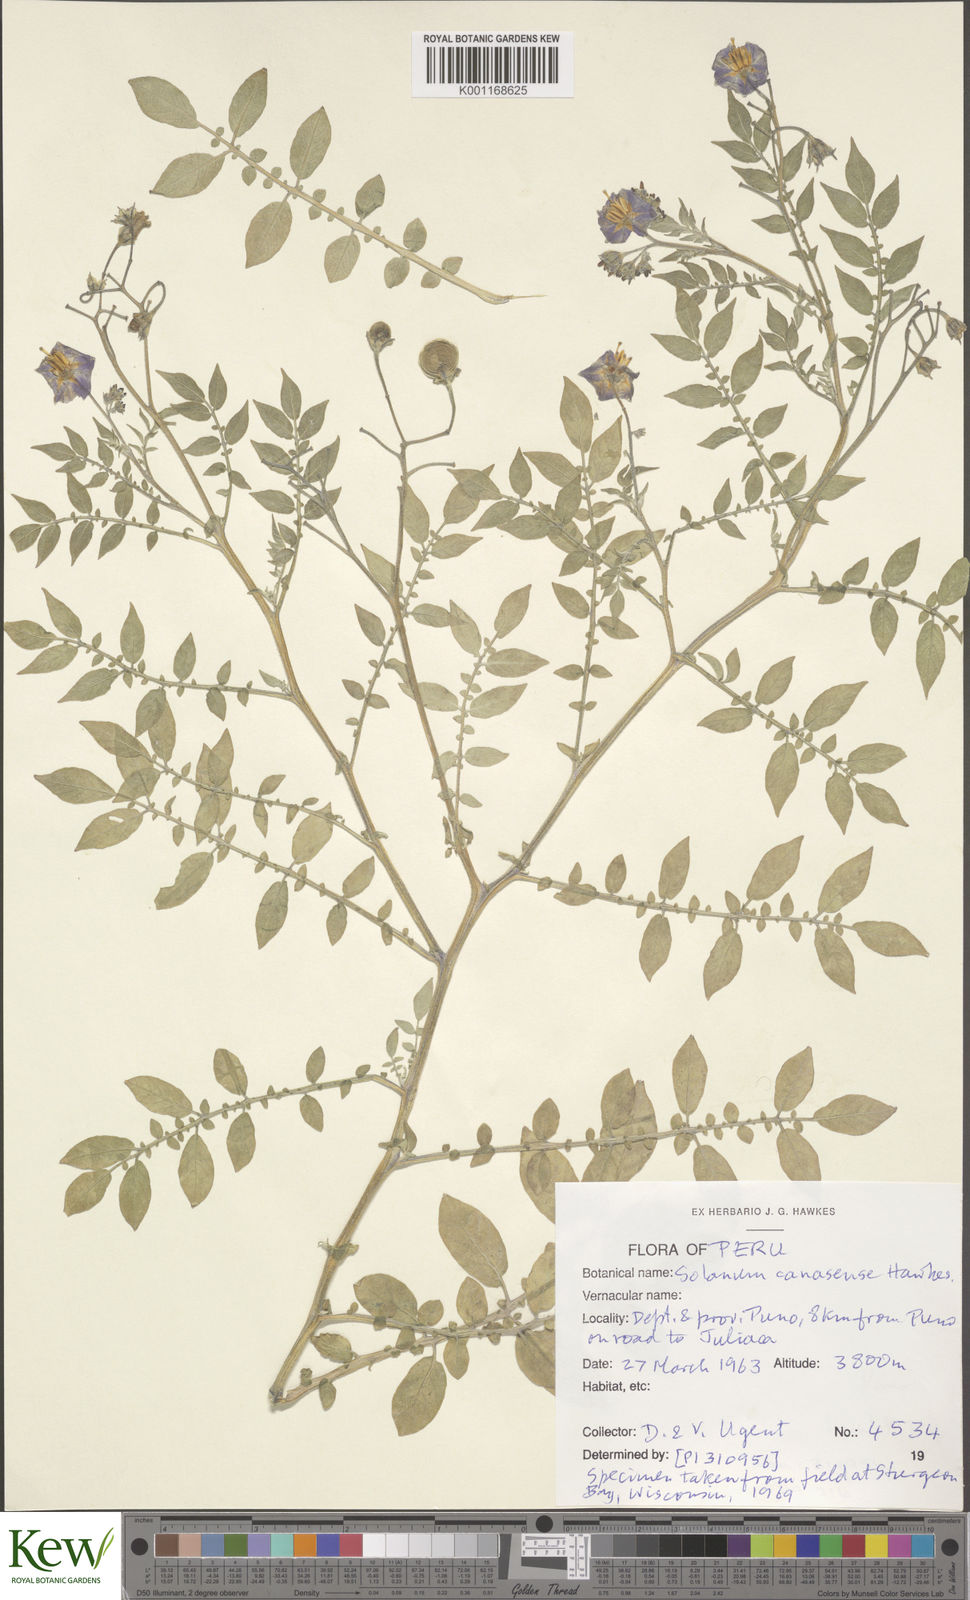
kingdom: Plantae
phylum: Tracheophyta
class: Magnoliopsida
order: Solanales
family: Solanaceae
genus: Solanum
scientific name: Solanum candolleanum
